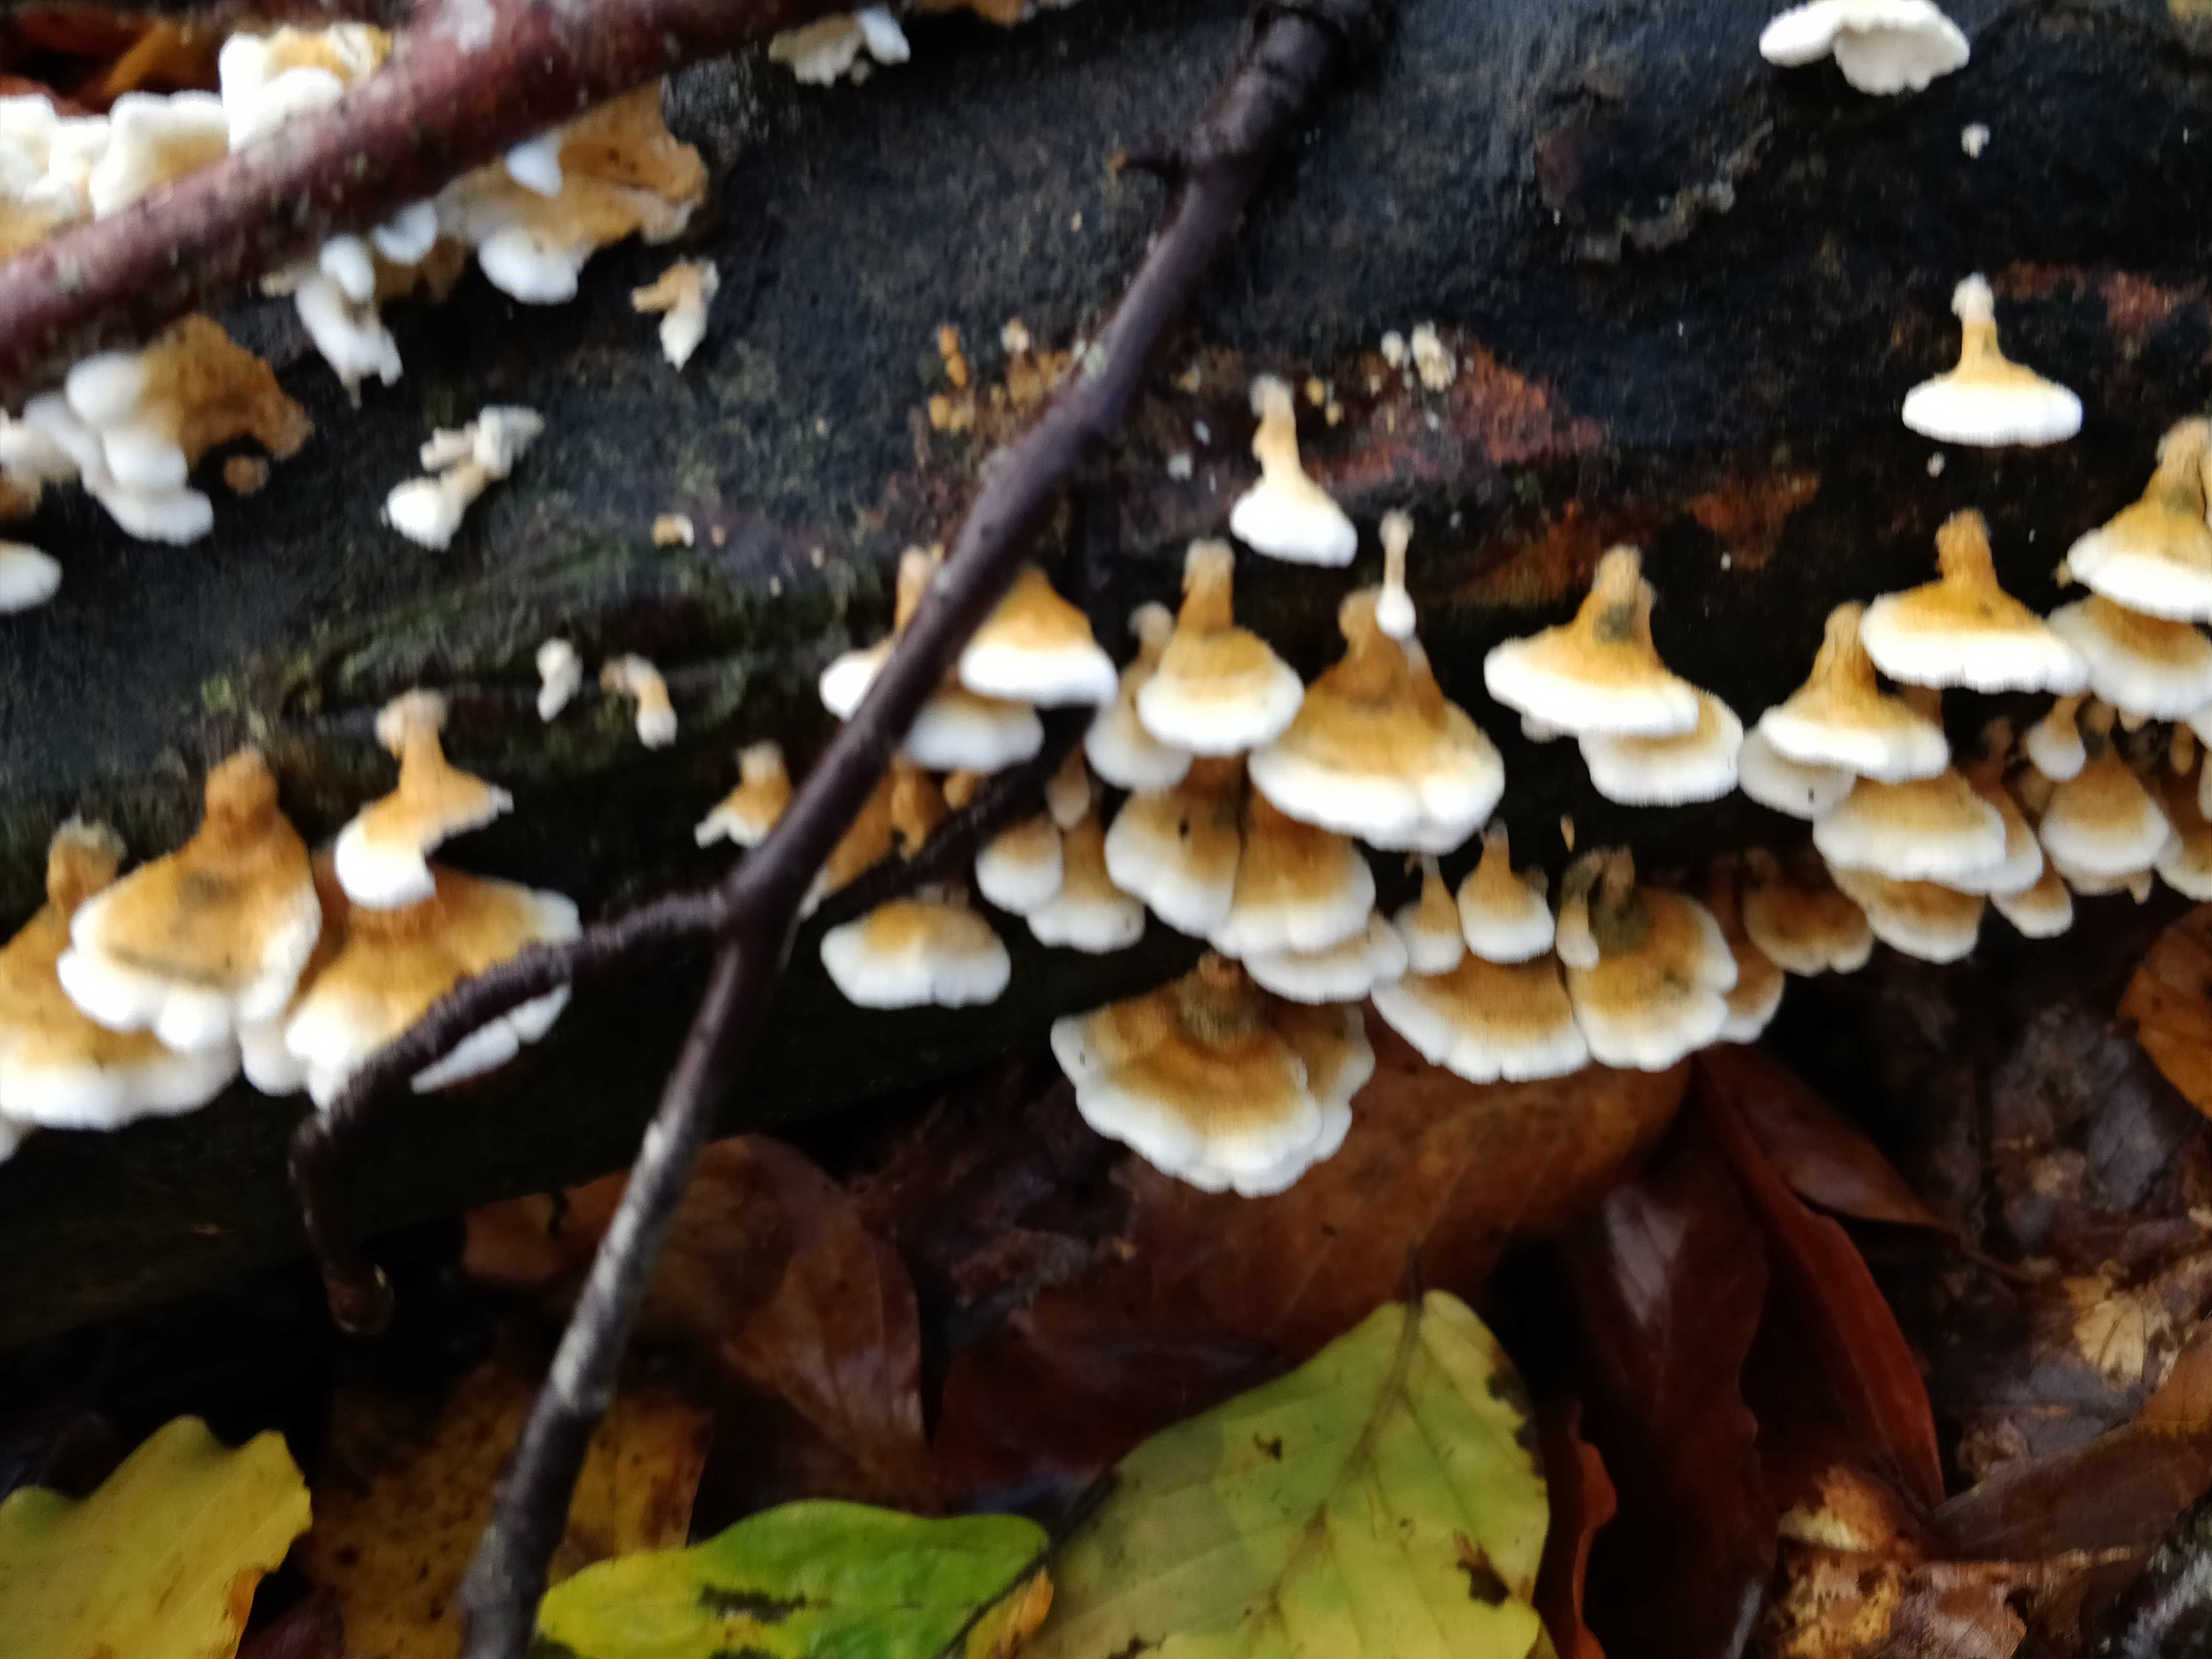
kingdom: Fungi
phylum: Basidiomycota
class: Agaricomycetes
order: Amylocorticiales
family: Amylocorticiaceae
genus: Plicaturopsis
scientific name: Plicaturopsis crispa
